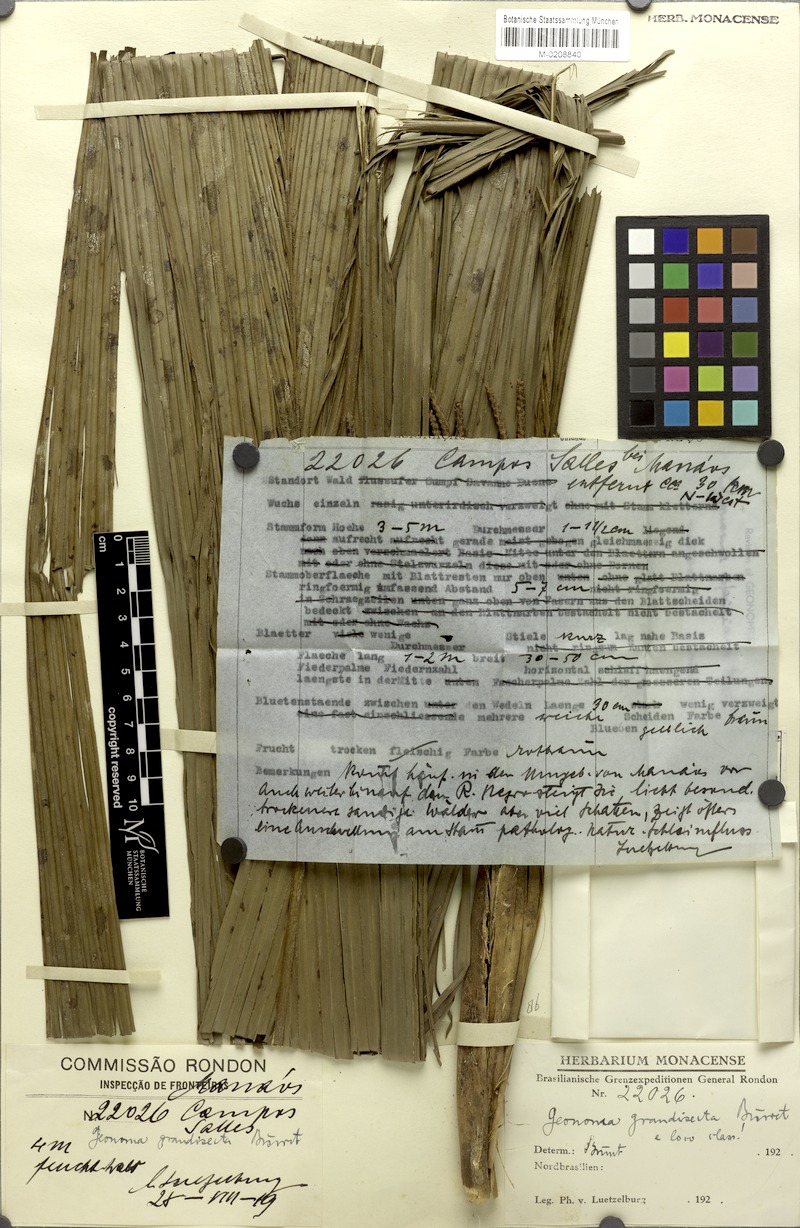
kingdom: Plantae
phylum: Tracheophyta
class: Liliopsida
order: Arecales
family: Arecaceae
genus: Geonoma
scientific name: Geonoma maxima
